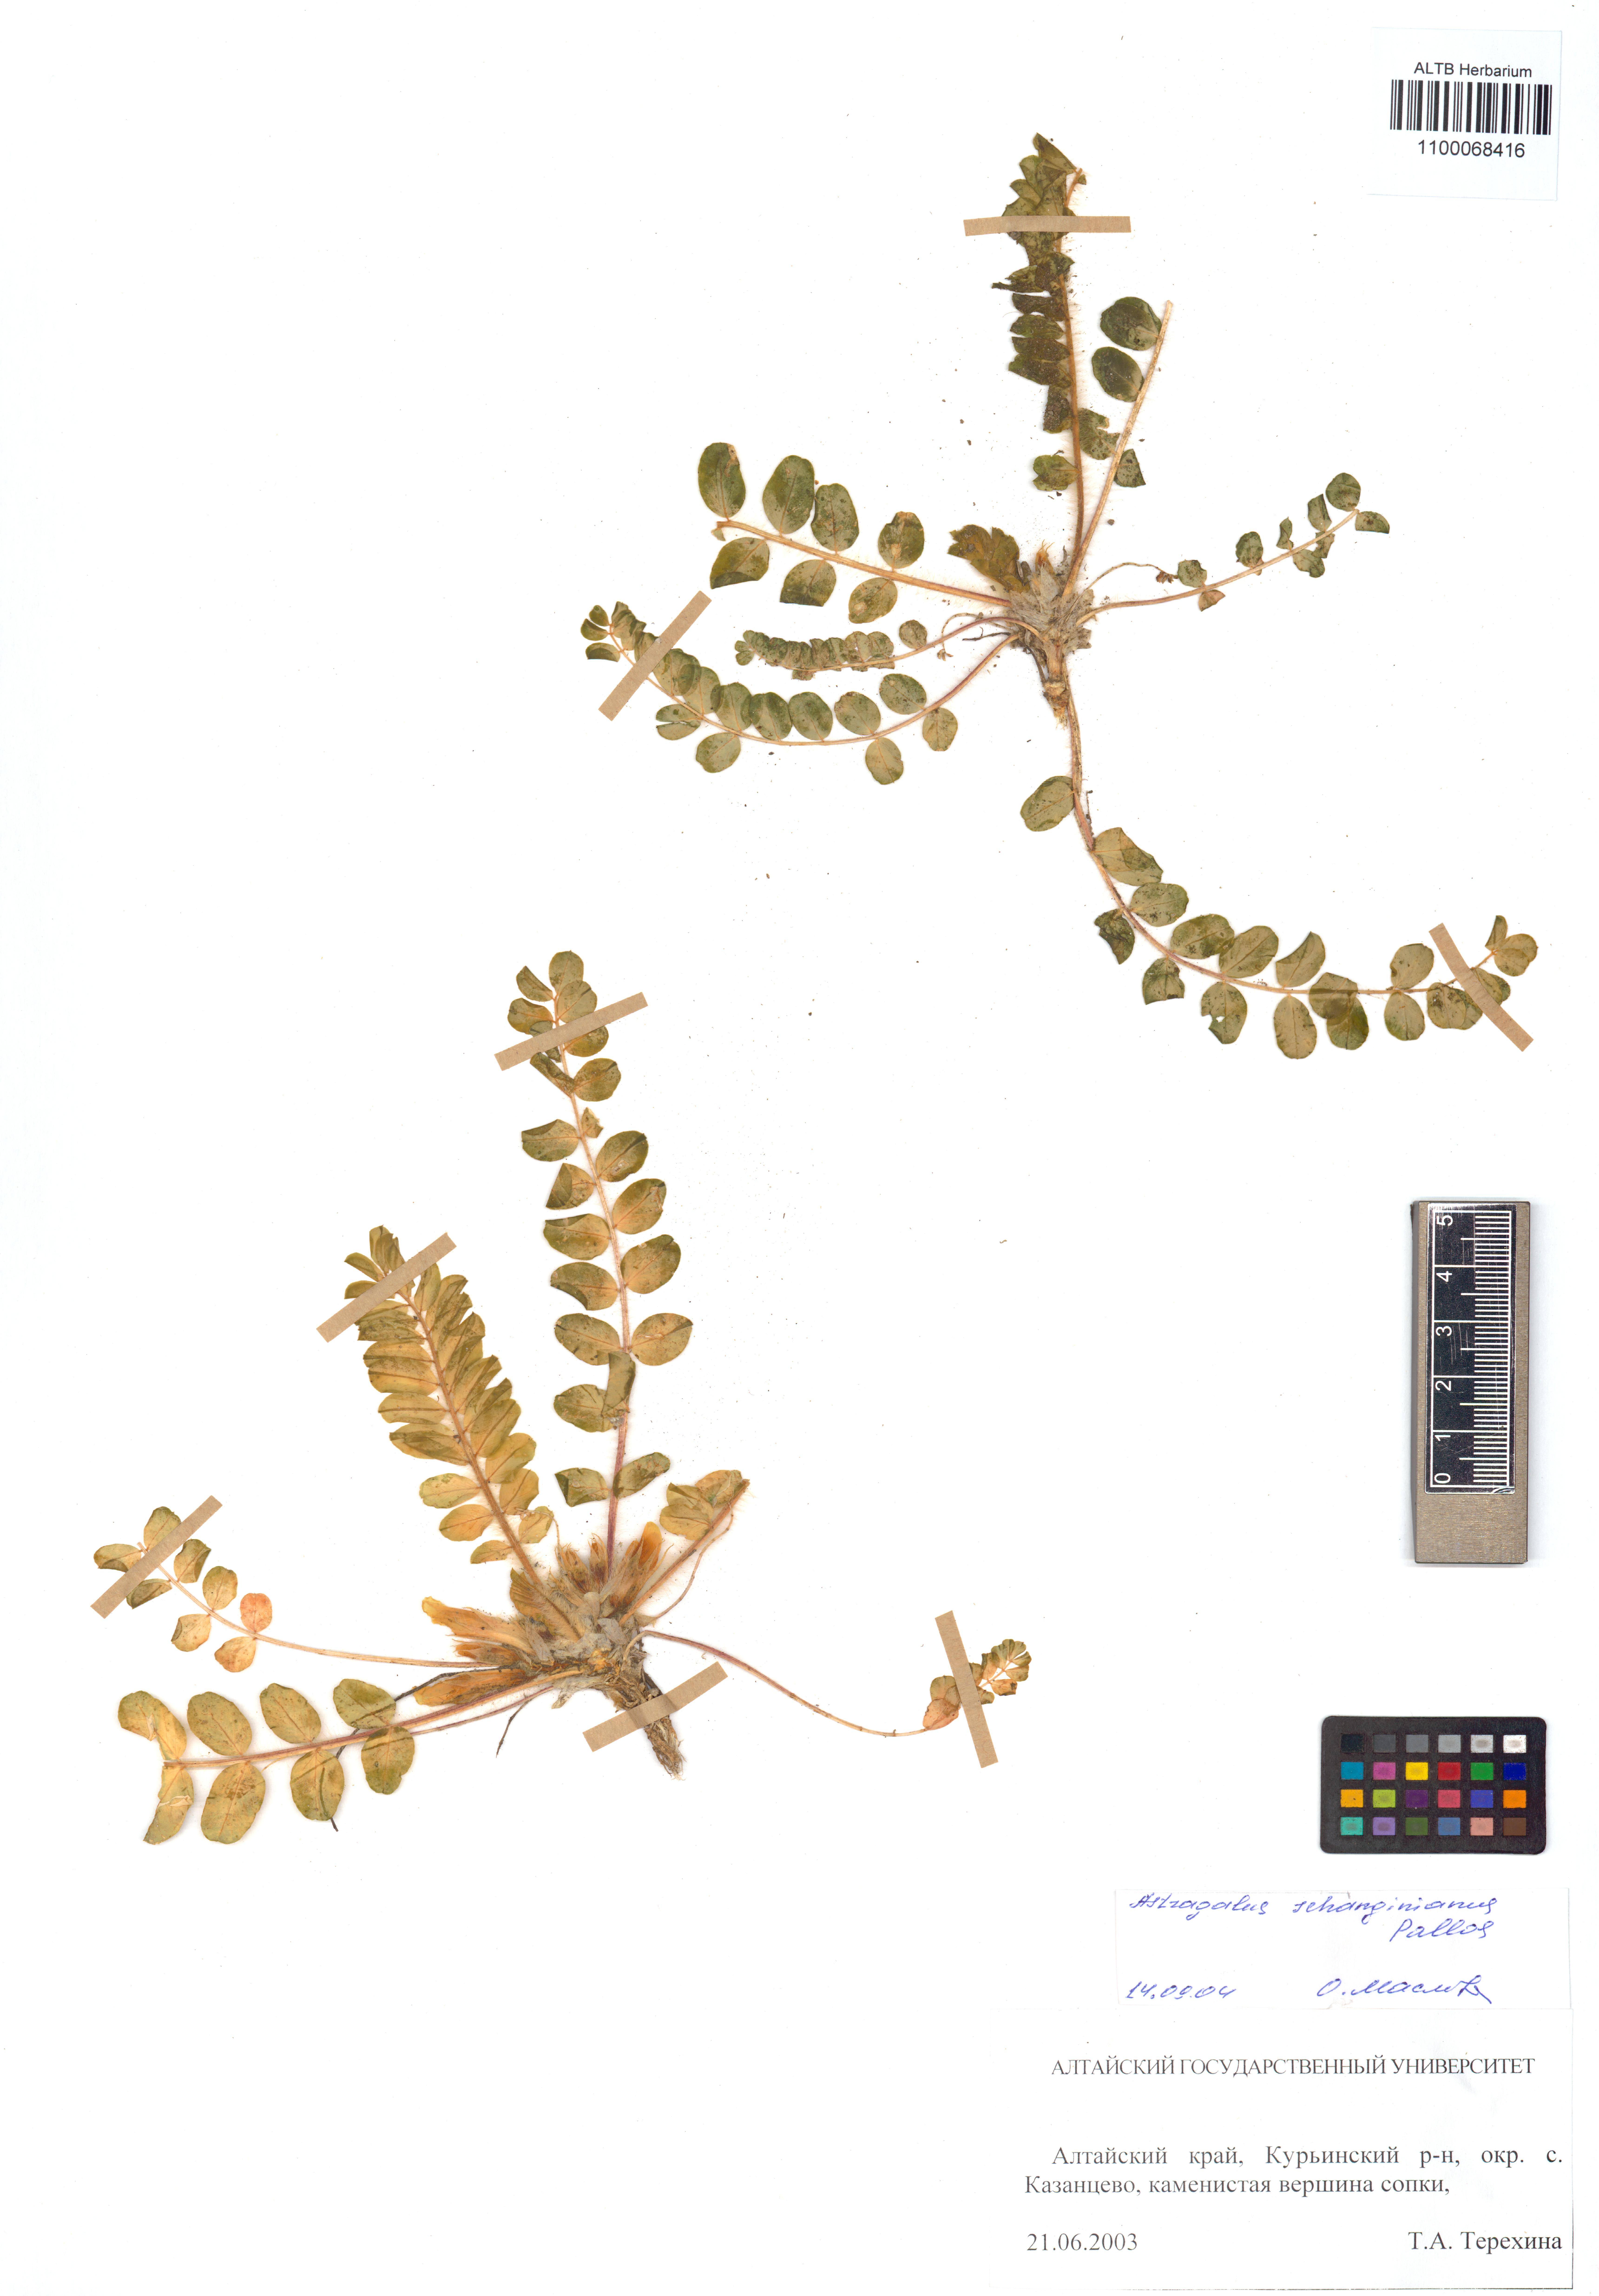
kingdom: Plantae
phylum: Tracheophyta
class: Magnoliopsida
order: Fabales
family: Fabaceae
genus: Astragalus
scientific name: Astragalus schanginianus
